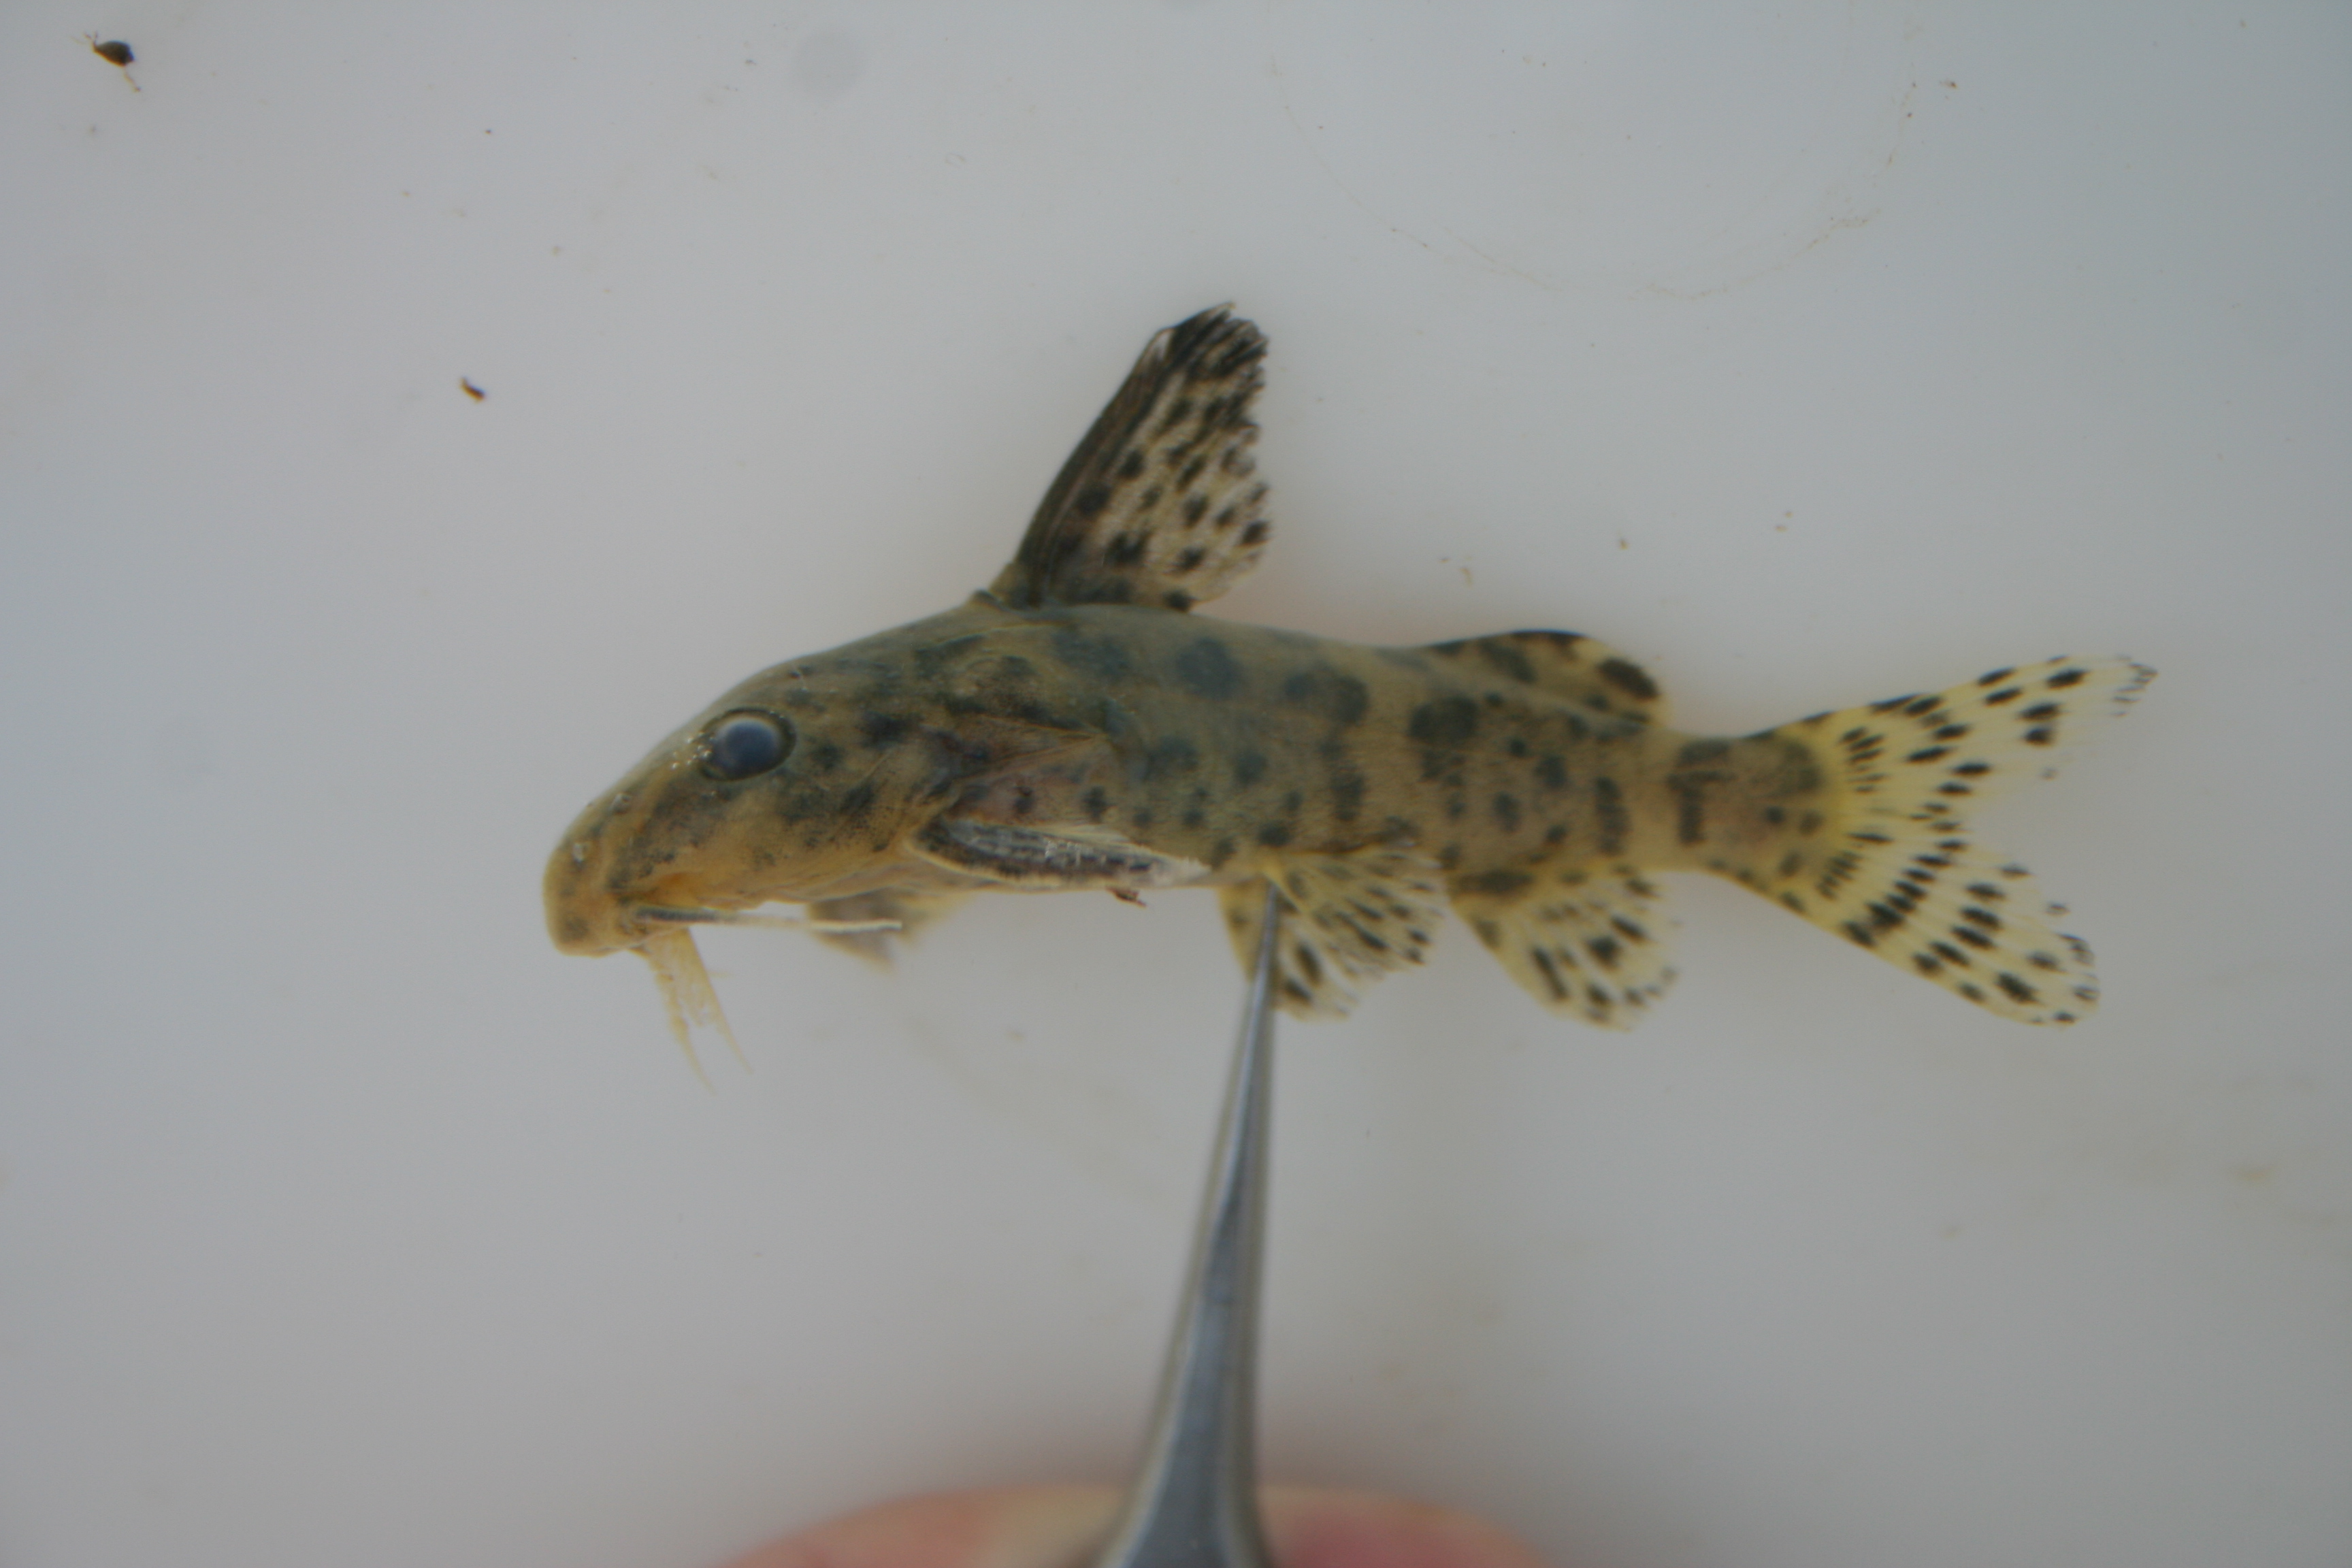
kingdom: Animalia
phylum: Chordata
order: Siluriformes
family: Mochokidae
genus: Synodontis
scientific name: Synodontis
